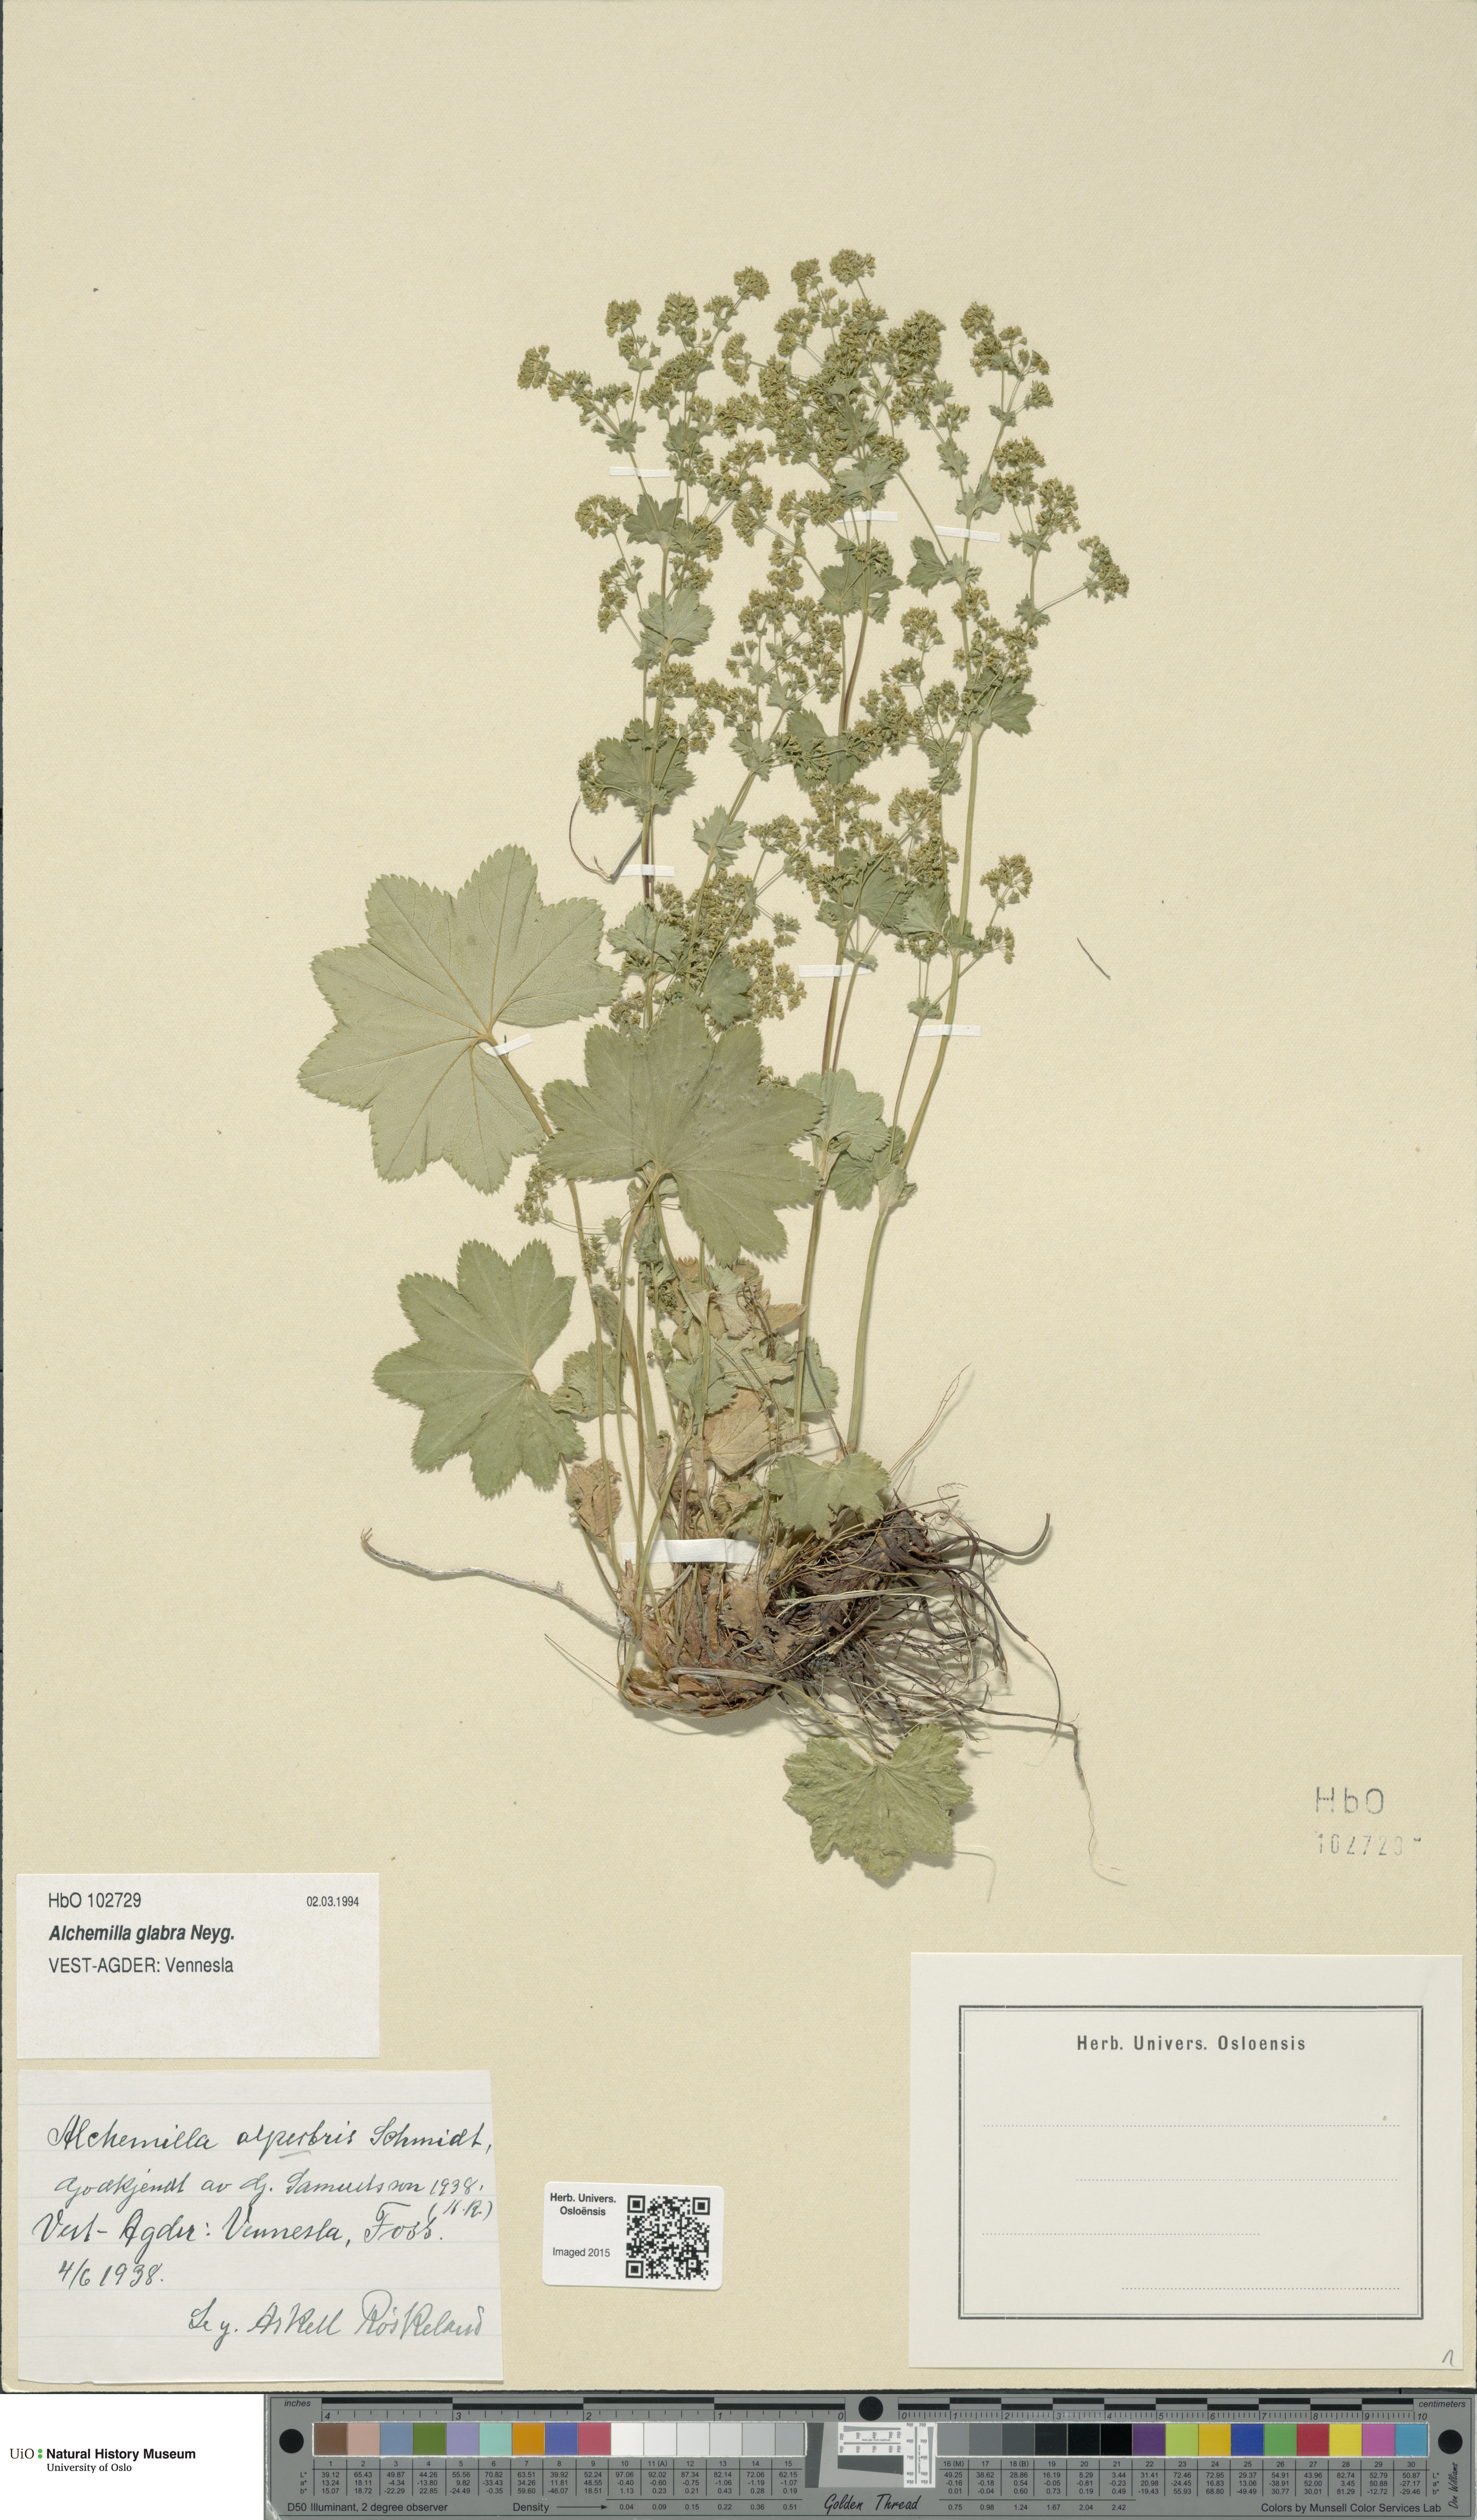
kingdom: Plantae
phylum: Tracheophyta
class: Magnoliopsida
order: Rosales
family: Rosaceae
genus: Alchemilla
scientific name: Alchemilla glabra
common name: Smooth lady's-mantle
